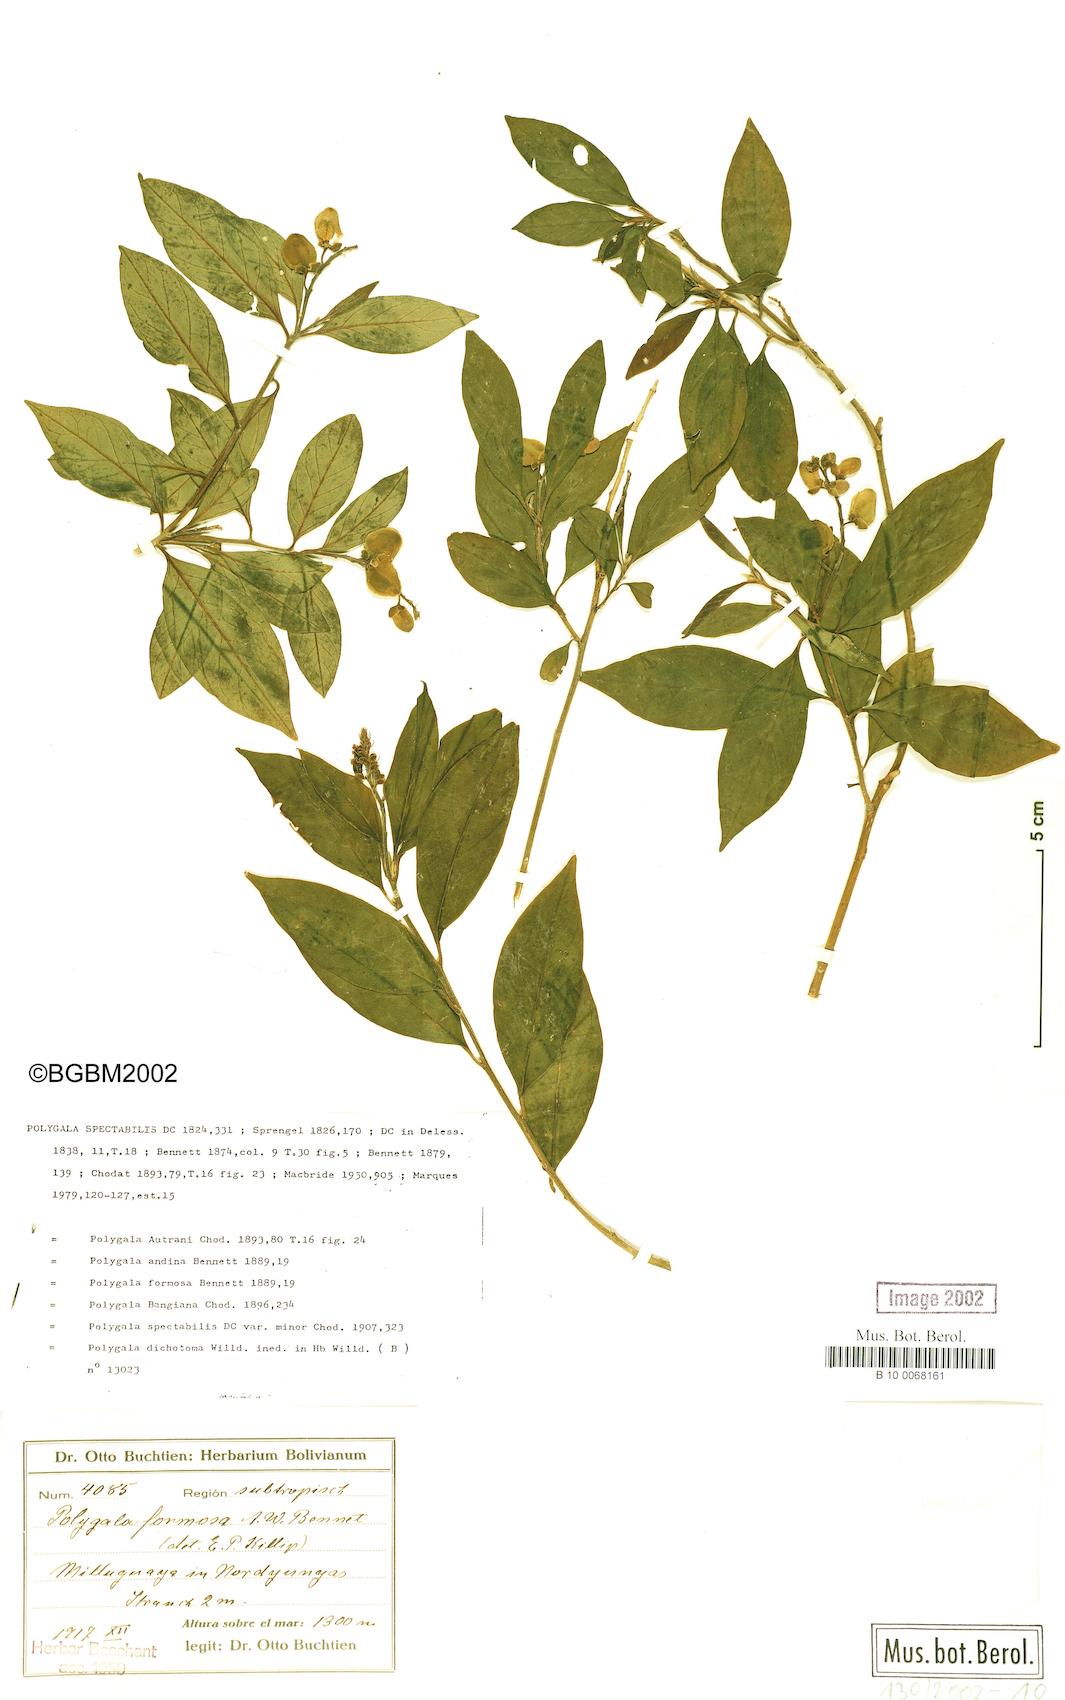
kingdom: Plantae
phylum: Tracheophyta
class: Magnoliopsida
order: Fabales
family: Polygalaceae
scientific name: Polygalaceae
